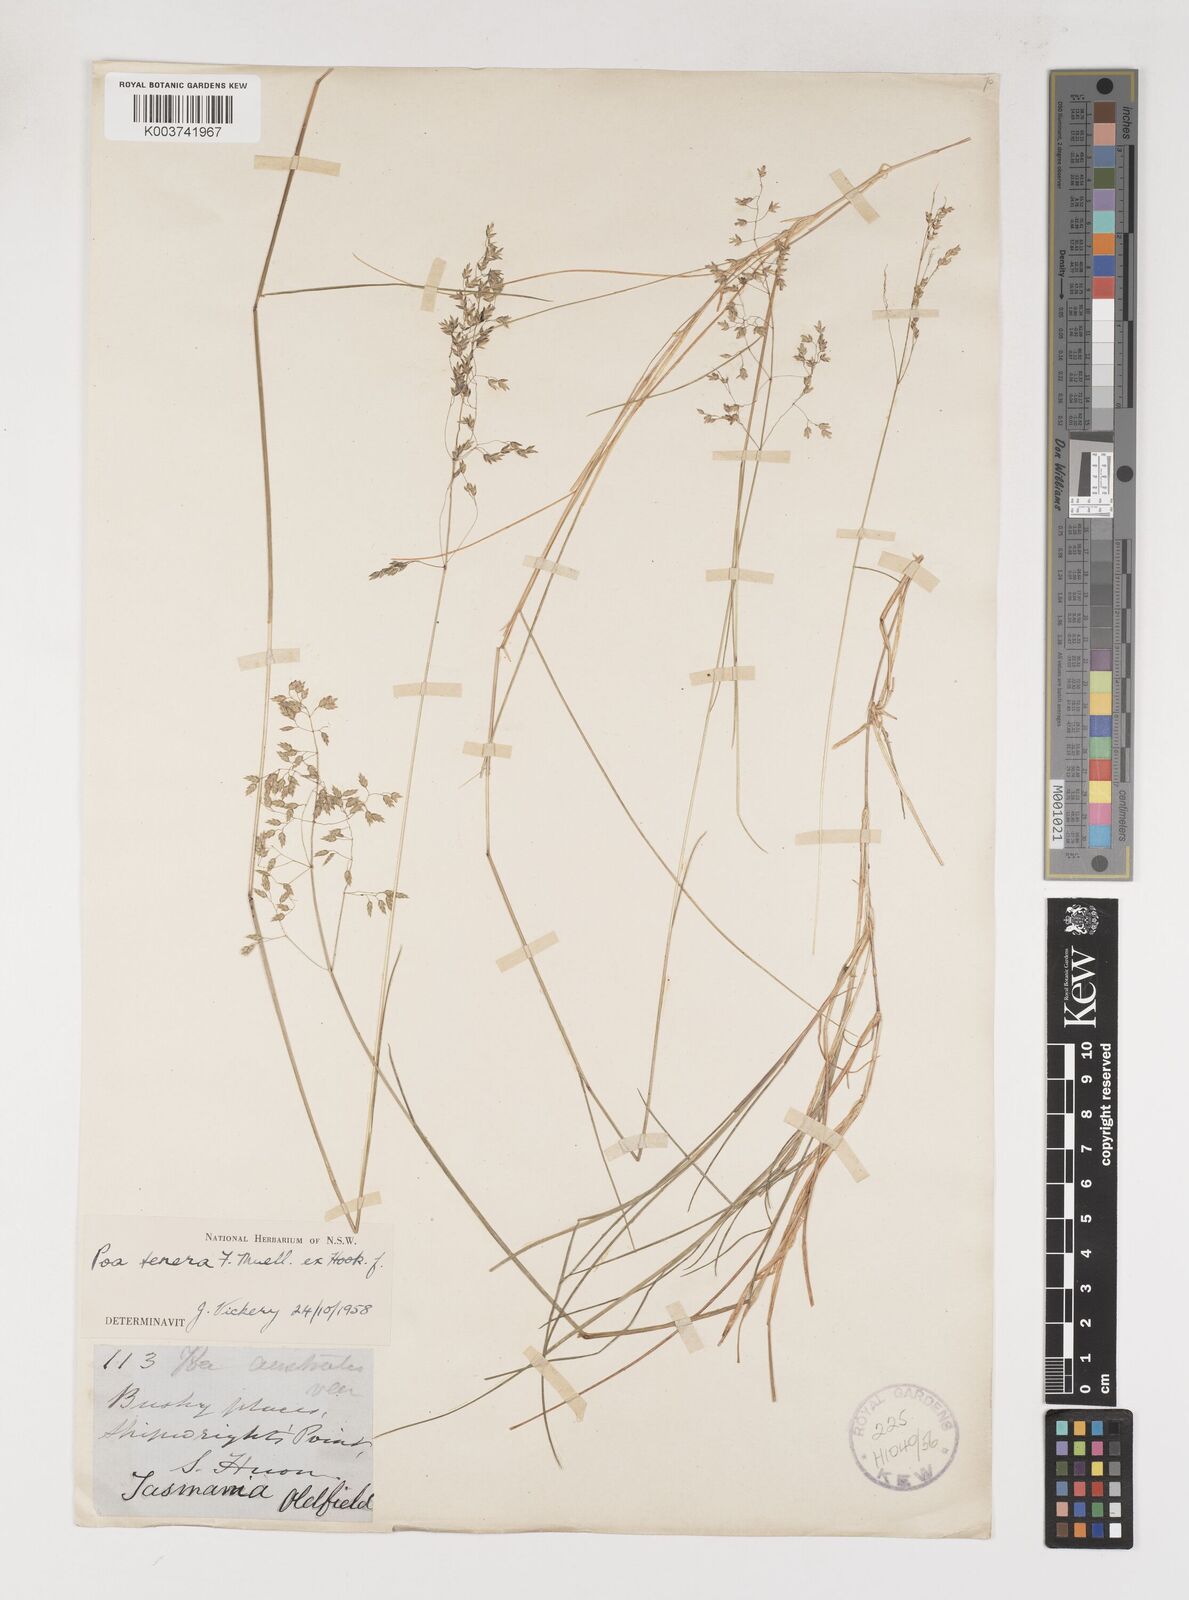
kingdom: Plantae
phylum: Tracheophyta
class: Liliopsida
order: Poales
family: Poaceae
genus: Poa
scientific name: Poa tenera
